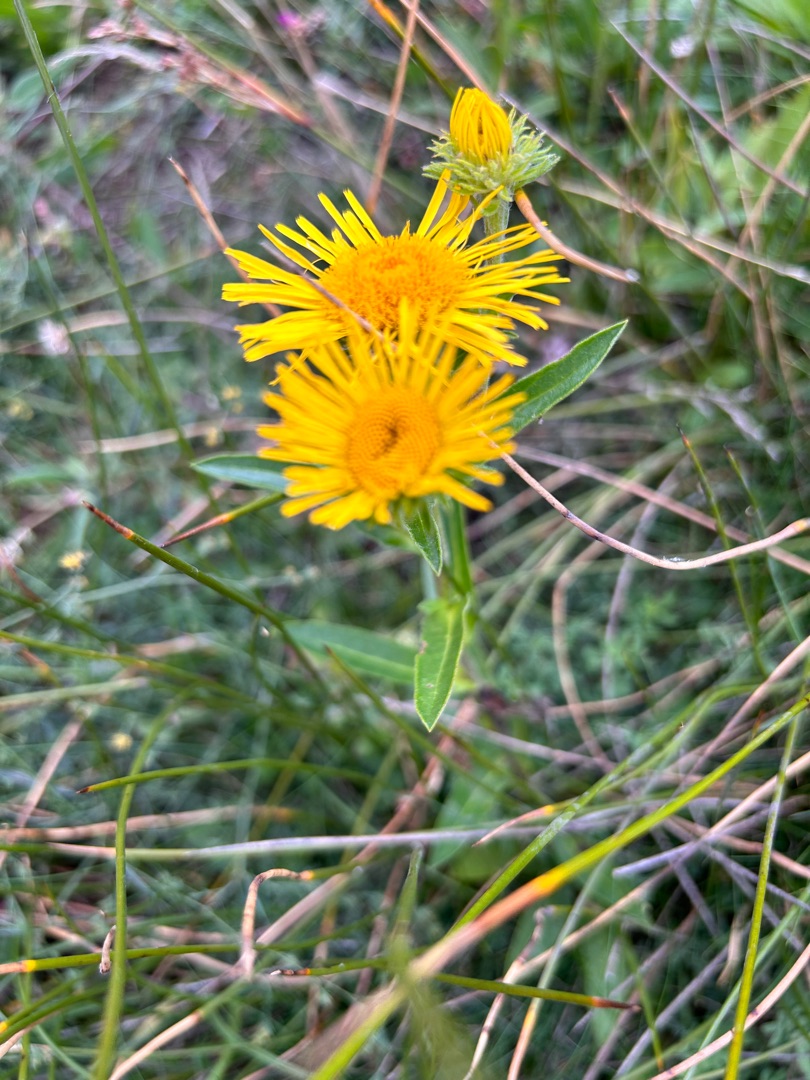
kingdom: Plantae
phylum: Tracheophyta
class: Magnoliopsida
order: Asterales
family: Asteraceae
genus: Pentanema
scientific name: Pentanema britannicum
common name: Soløje-alant
